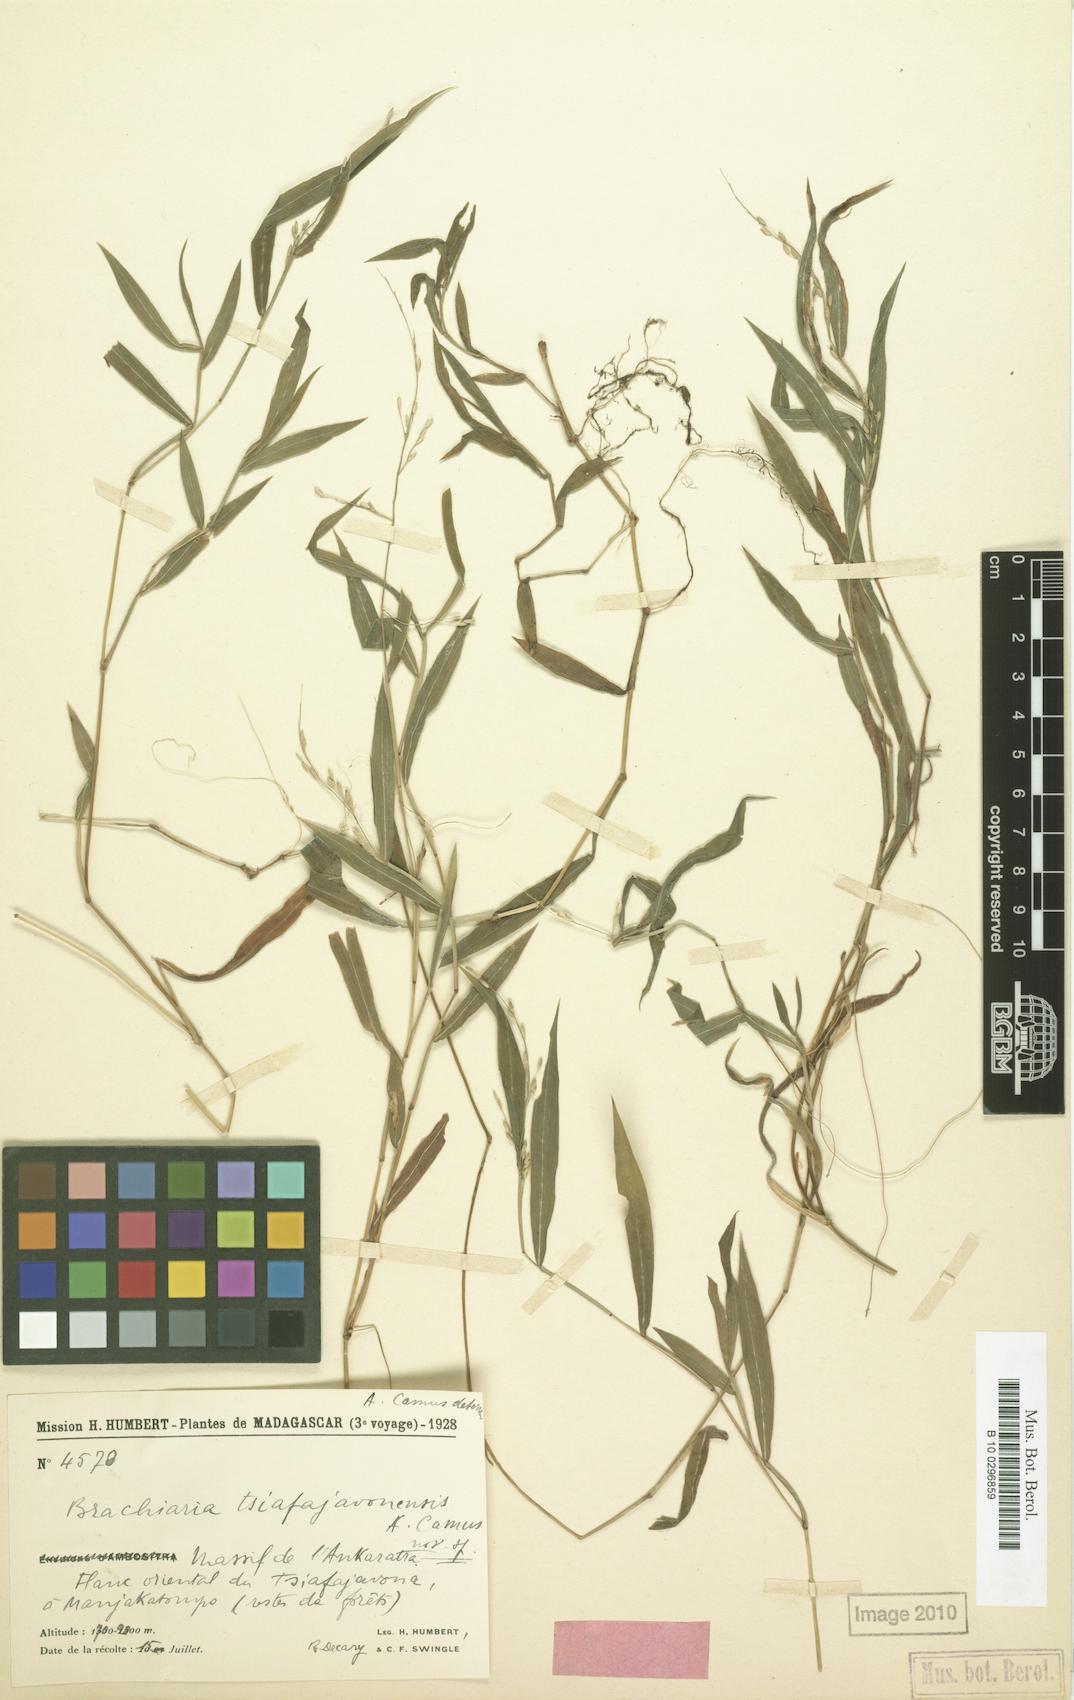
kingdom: Plantae
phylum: Tracheophyta
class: Liliopsida
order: Poales
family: Poaceae
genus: Urochloa
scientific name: Urochloa Brachiaria tsiafajavonensis
